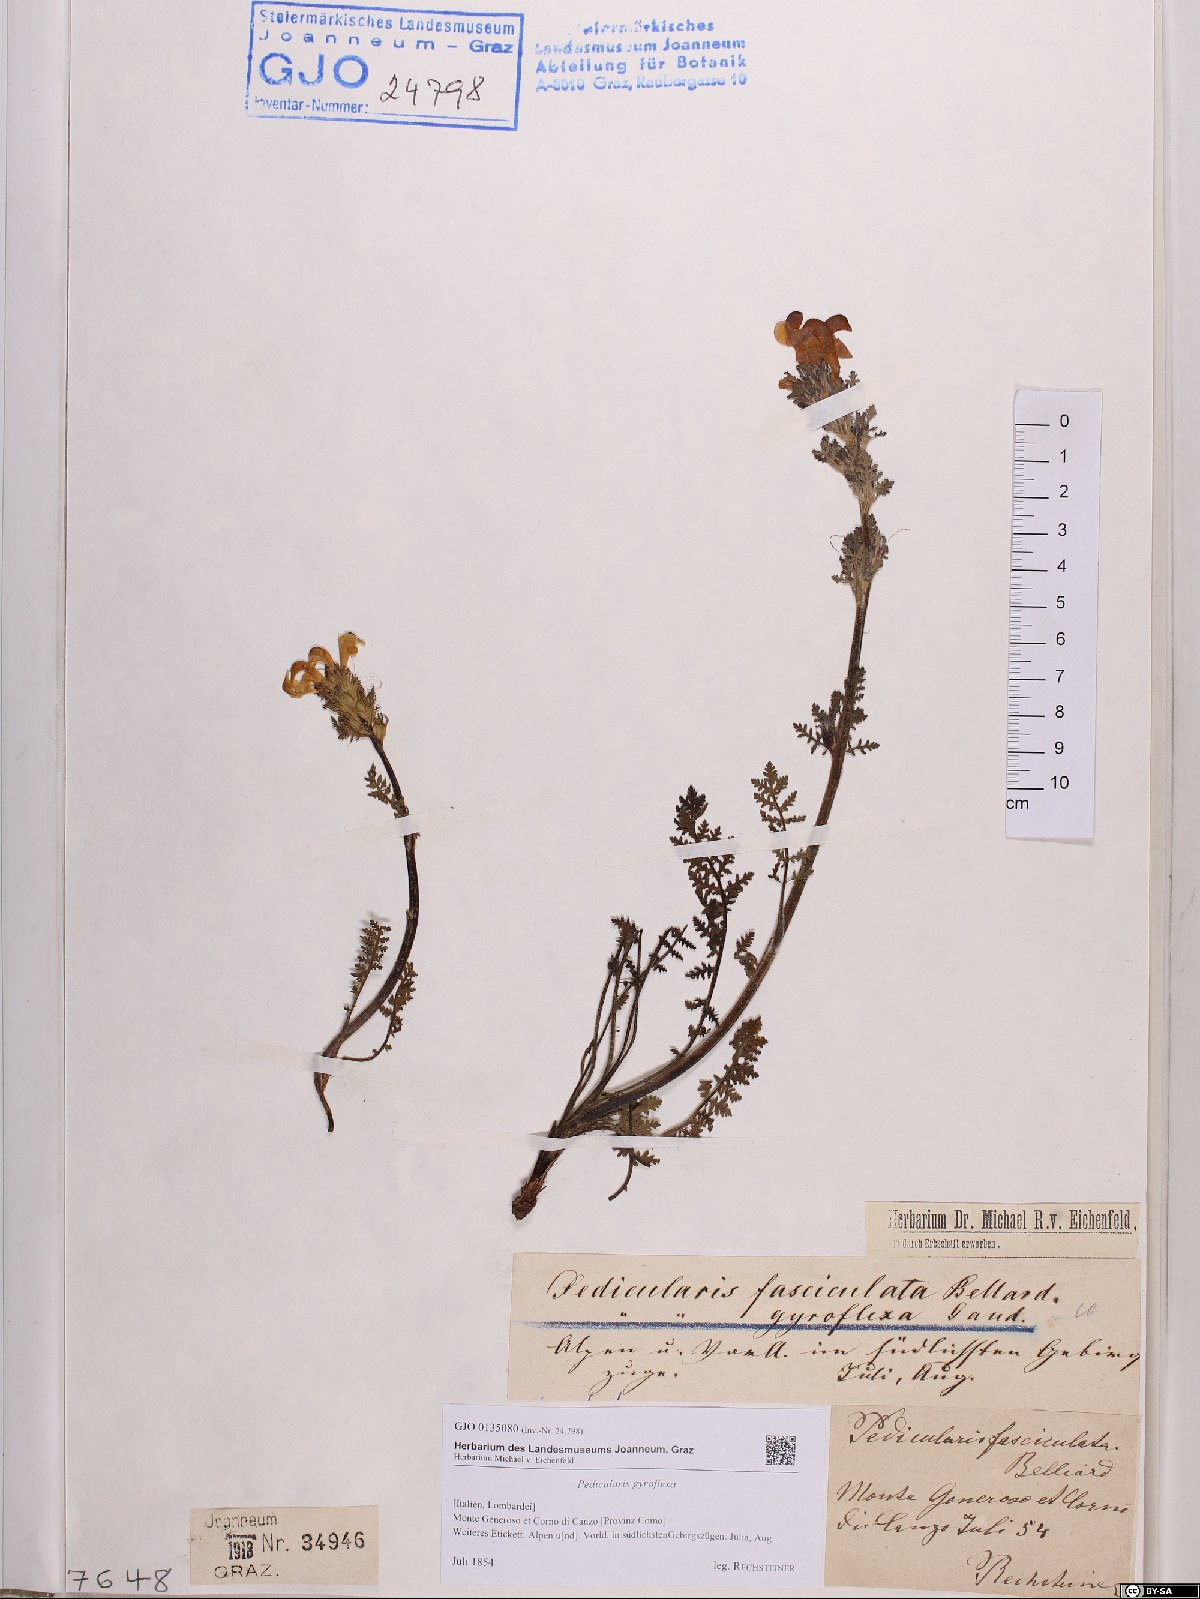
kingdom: Plantae
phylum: Tracheophyta
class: Magnoliopsida
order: Lamiales
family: Orobanchaceae
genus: Pedicularis
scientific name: Pedicularis gyroflexa
